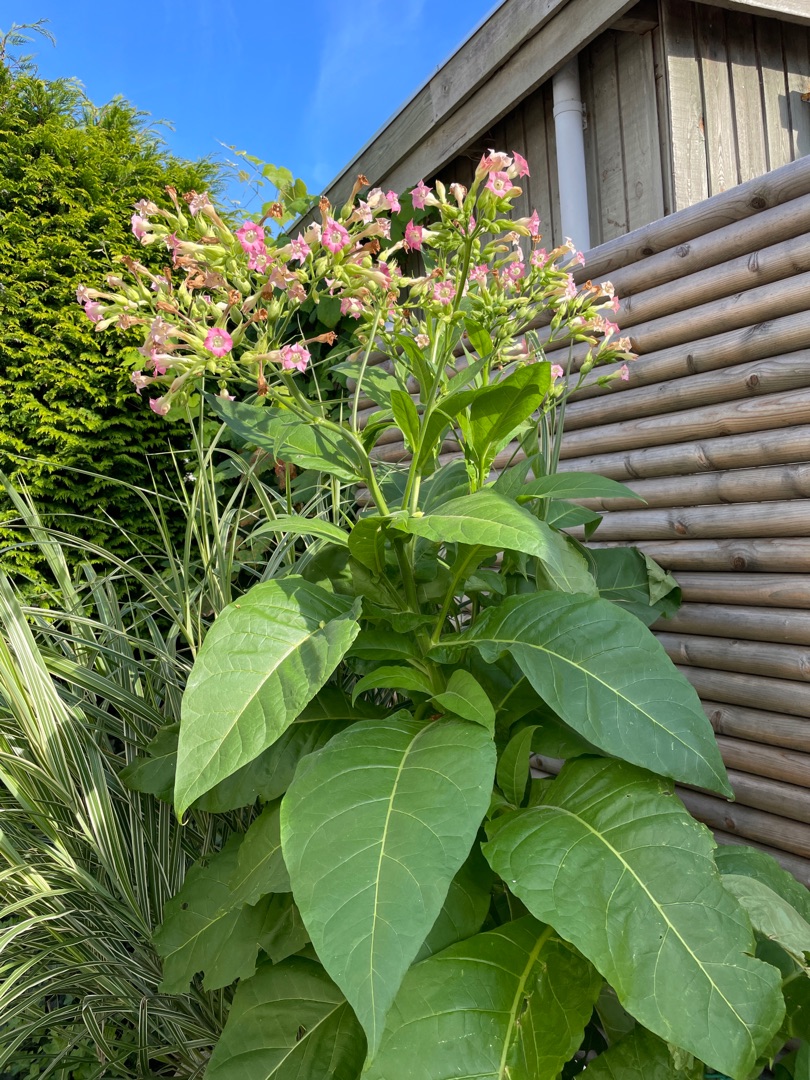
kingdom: Plantae
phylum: Tracheophyta
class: Magnoliopsida
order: Solanales
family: Solanaceae
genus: Nicotiana
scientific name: Nicotiana tabacum
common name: Virginsk tobak
